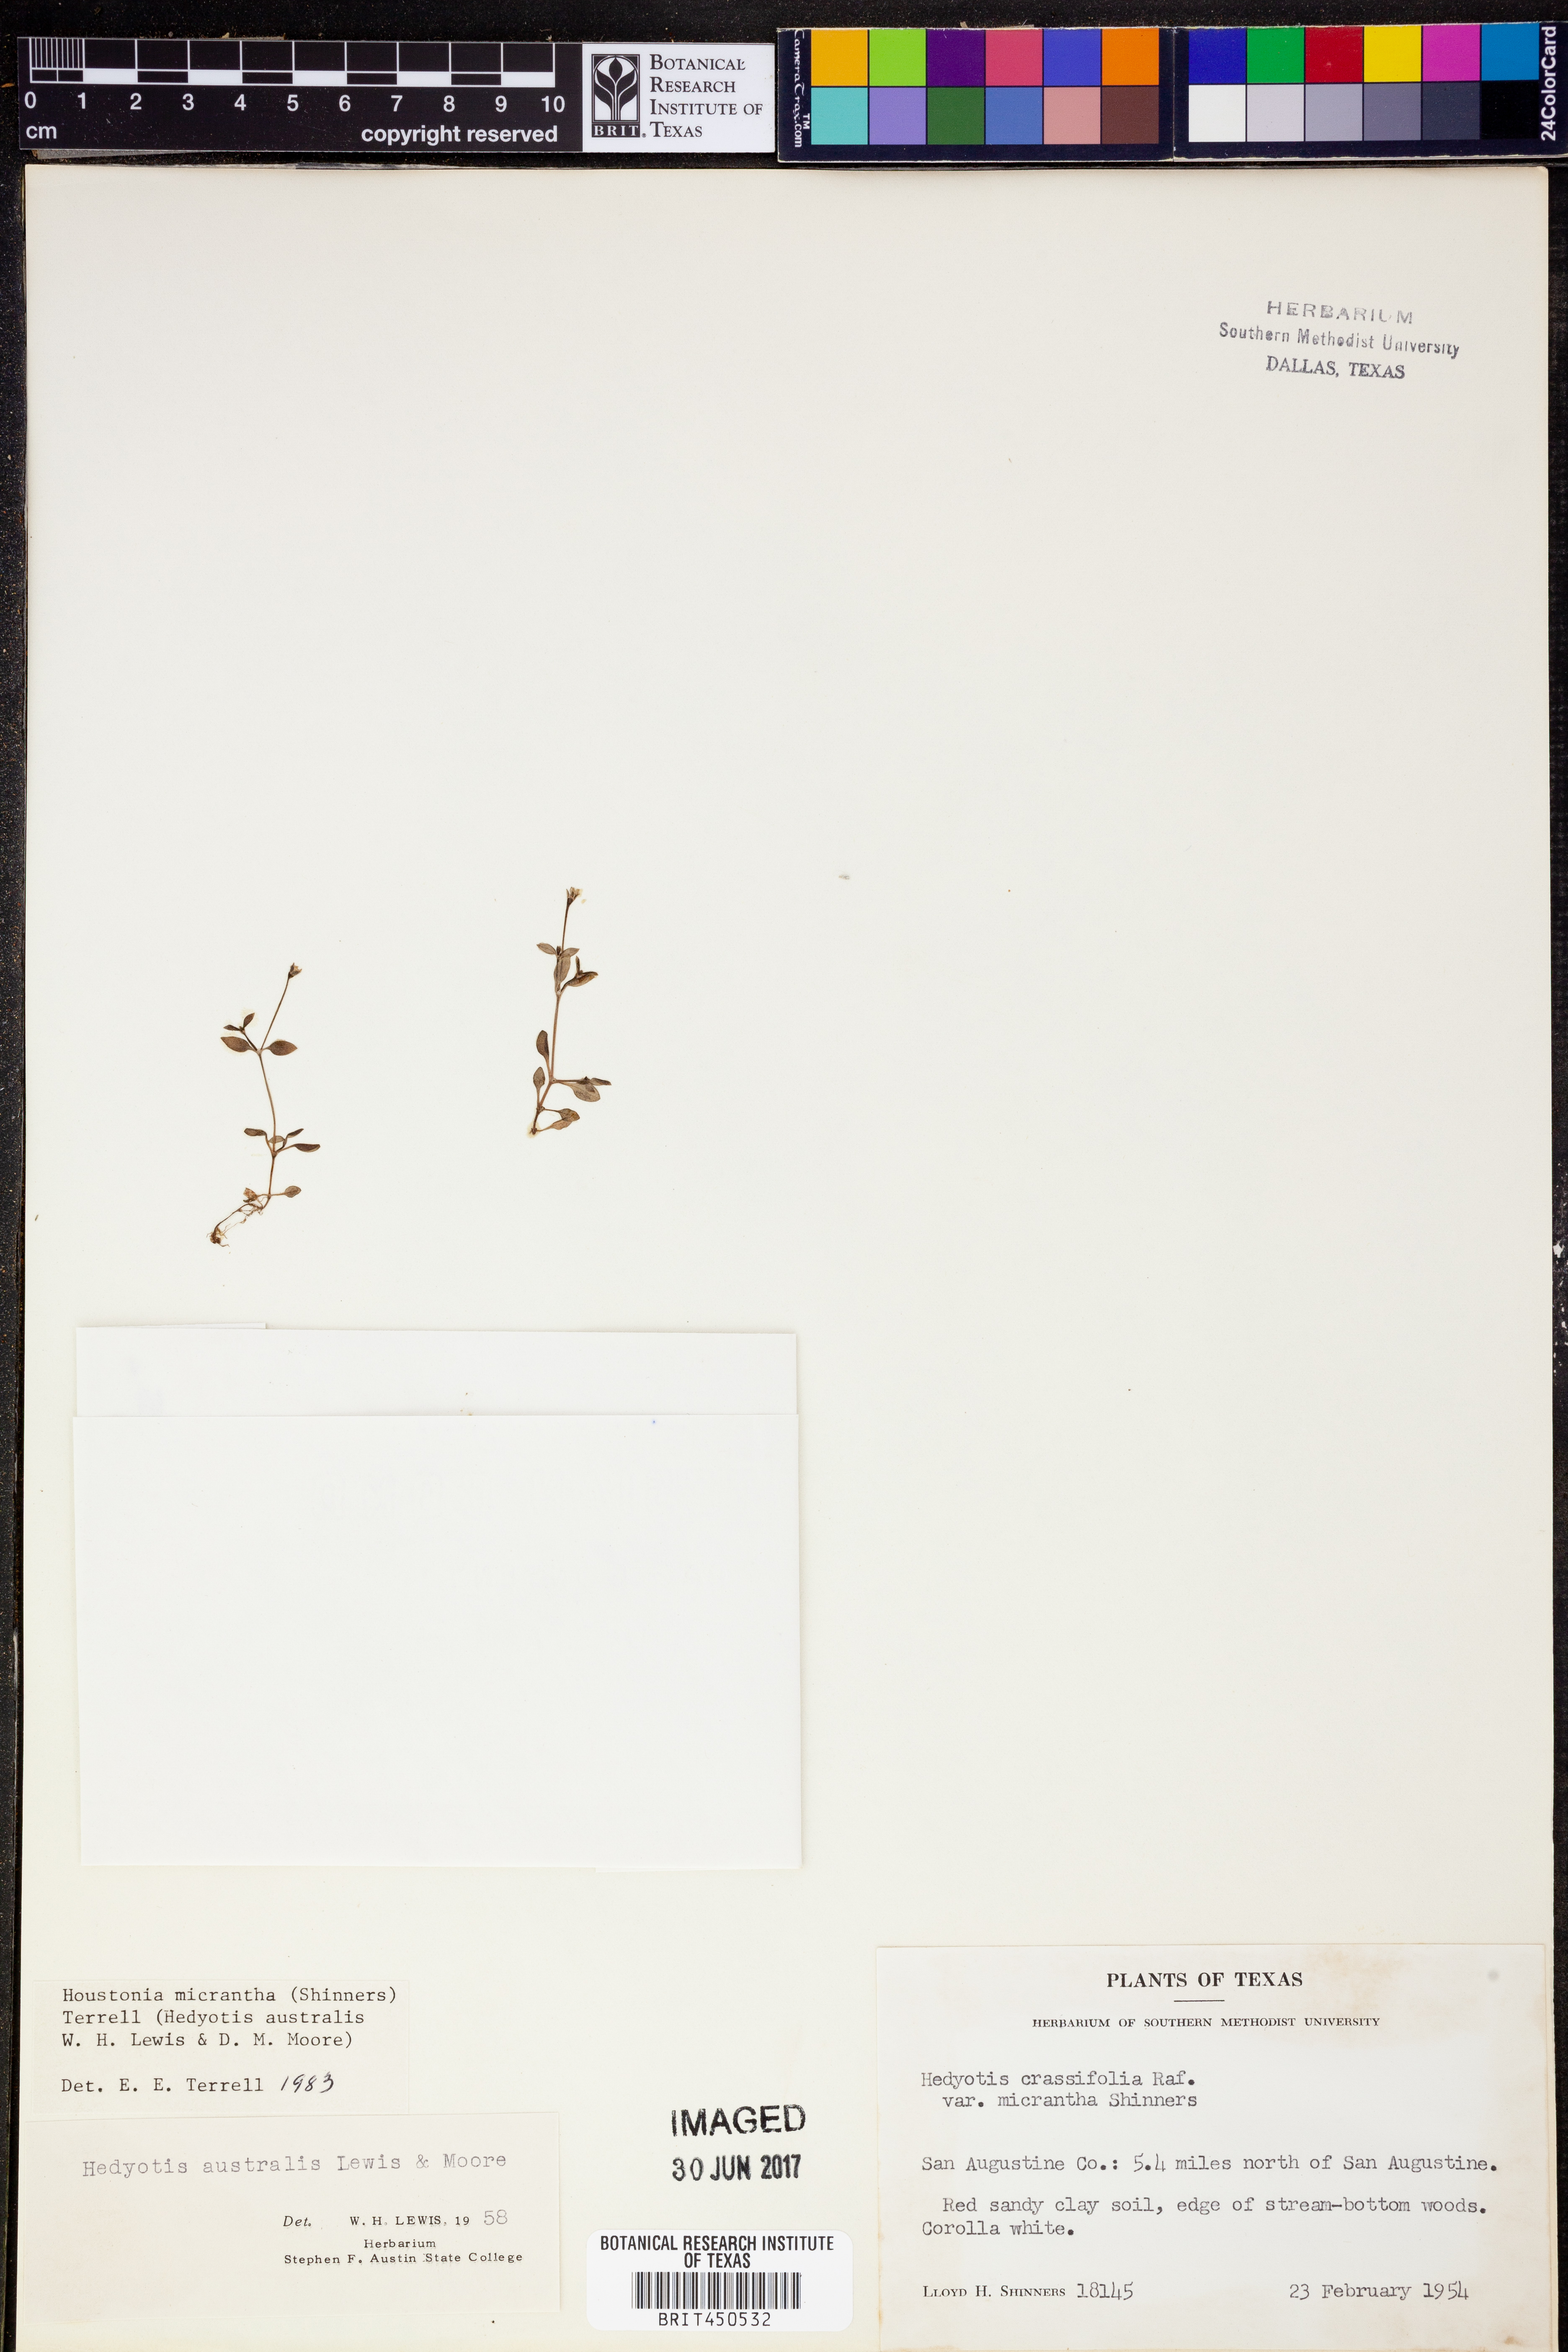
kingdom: Plantae
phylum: Tracheophyta
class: Magnoliopsida
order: Gentianales
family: Rubiaceae
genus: Houstonia
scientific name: Houstonia micrantha
